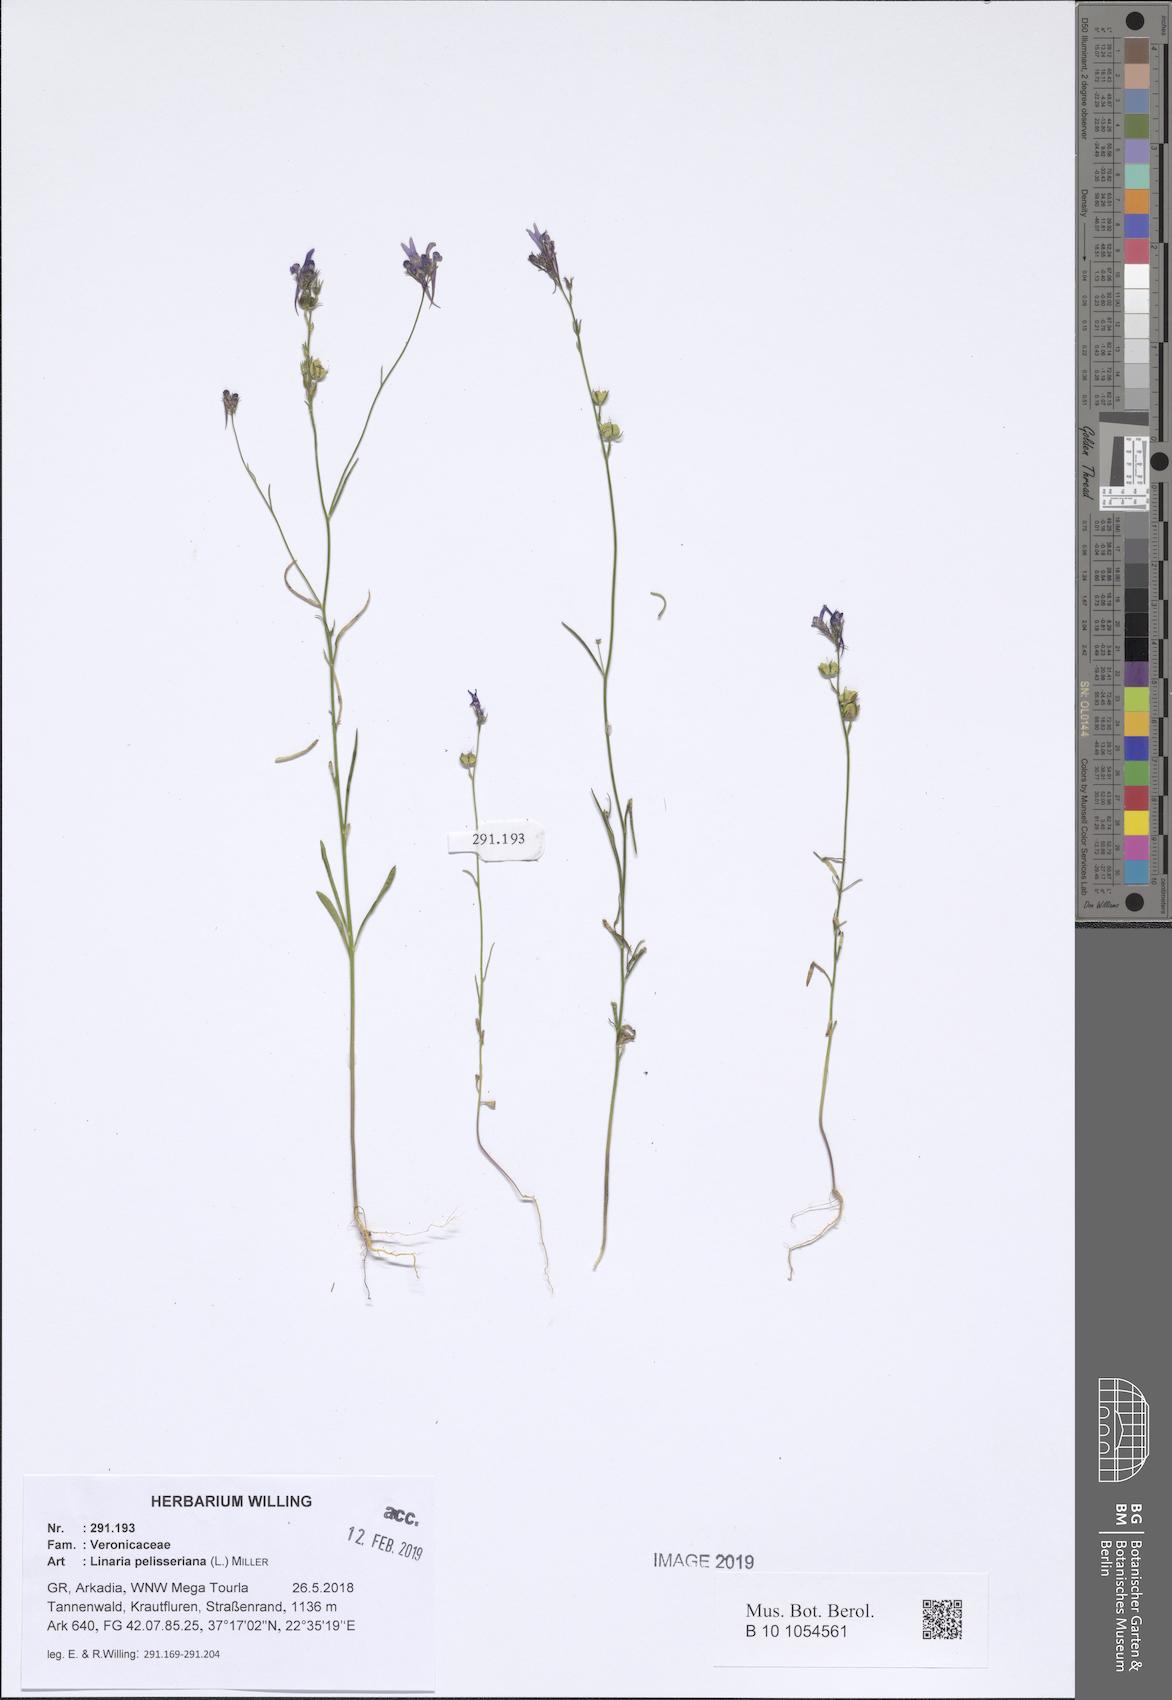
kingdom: Plantae
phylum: Tracheophyta
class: Magnoliopsida
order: Lamiales
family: Plantaginaceae
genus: Linaria
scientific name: Linaria pelisseriana
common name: Jersey toadflax
